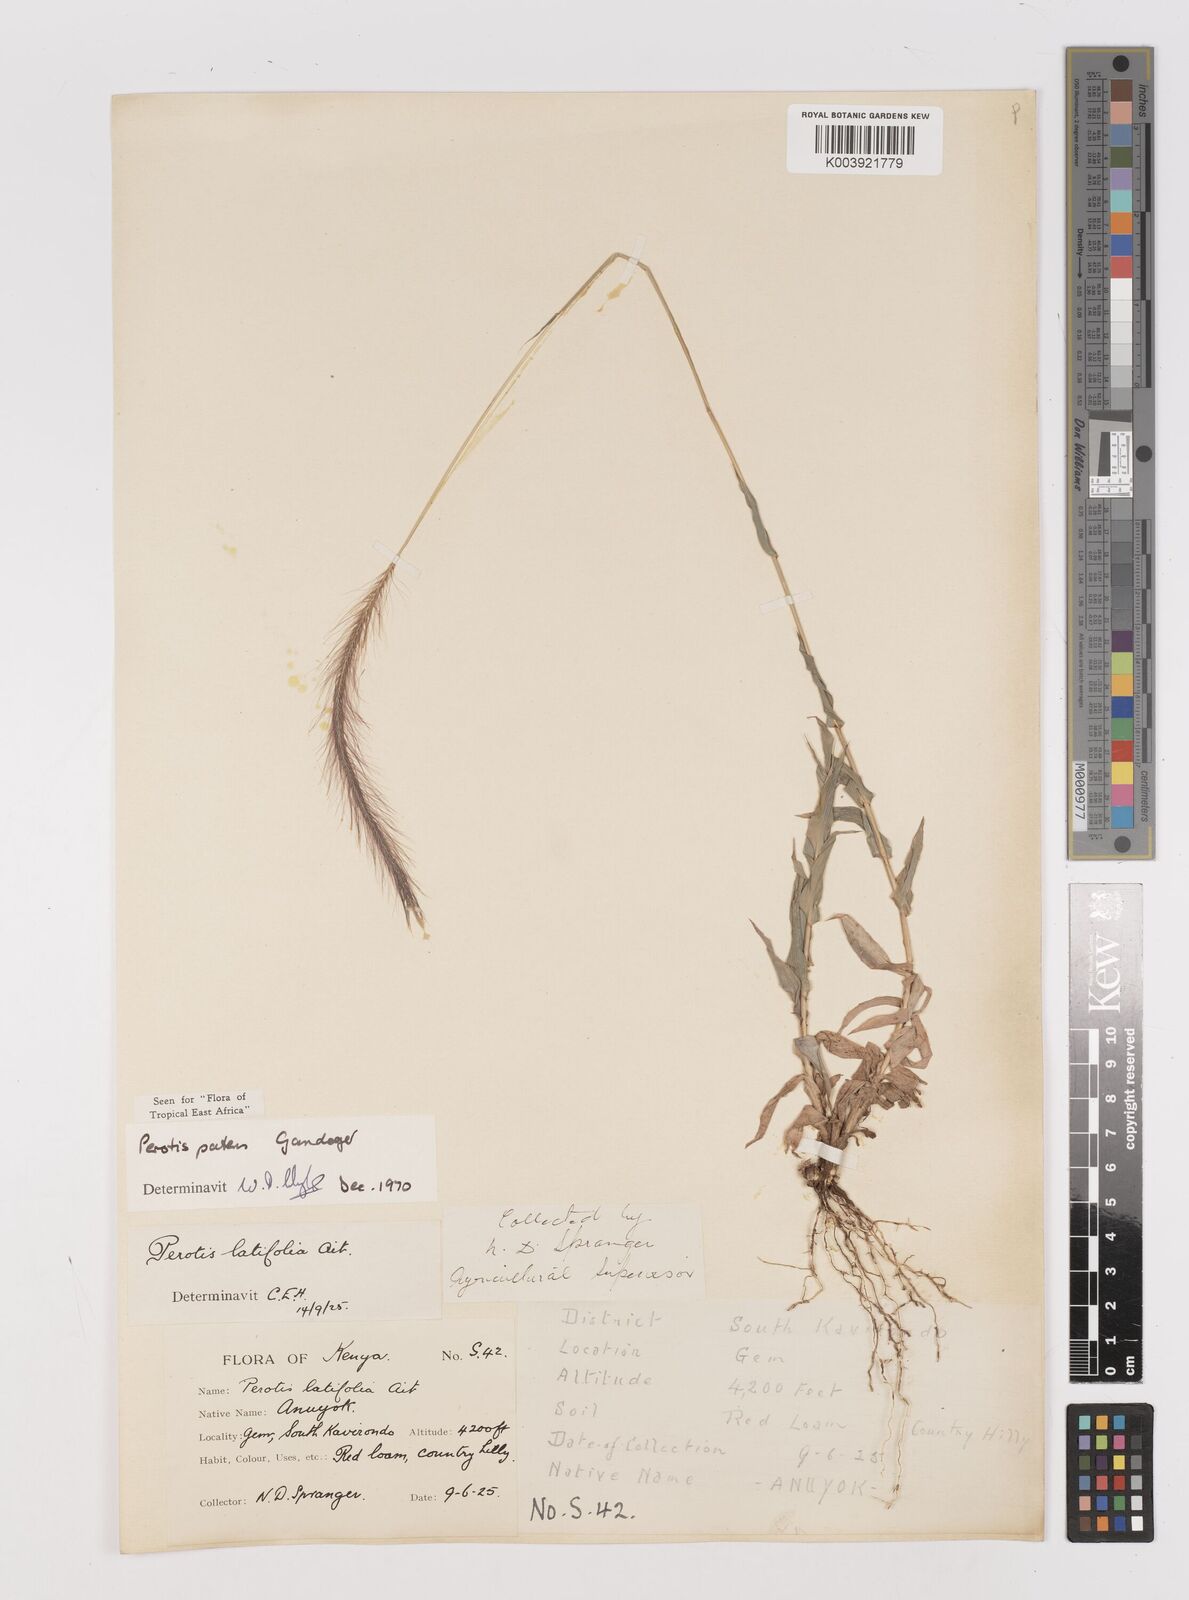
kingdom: Plantae
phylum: Tracheophyta
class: Liliopsida
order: Poales
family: Poaceae
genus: Perotis
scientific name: Perotis patens
